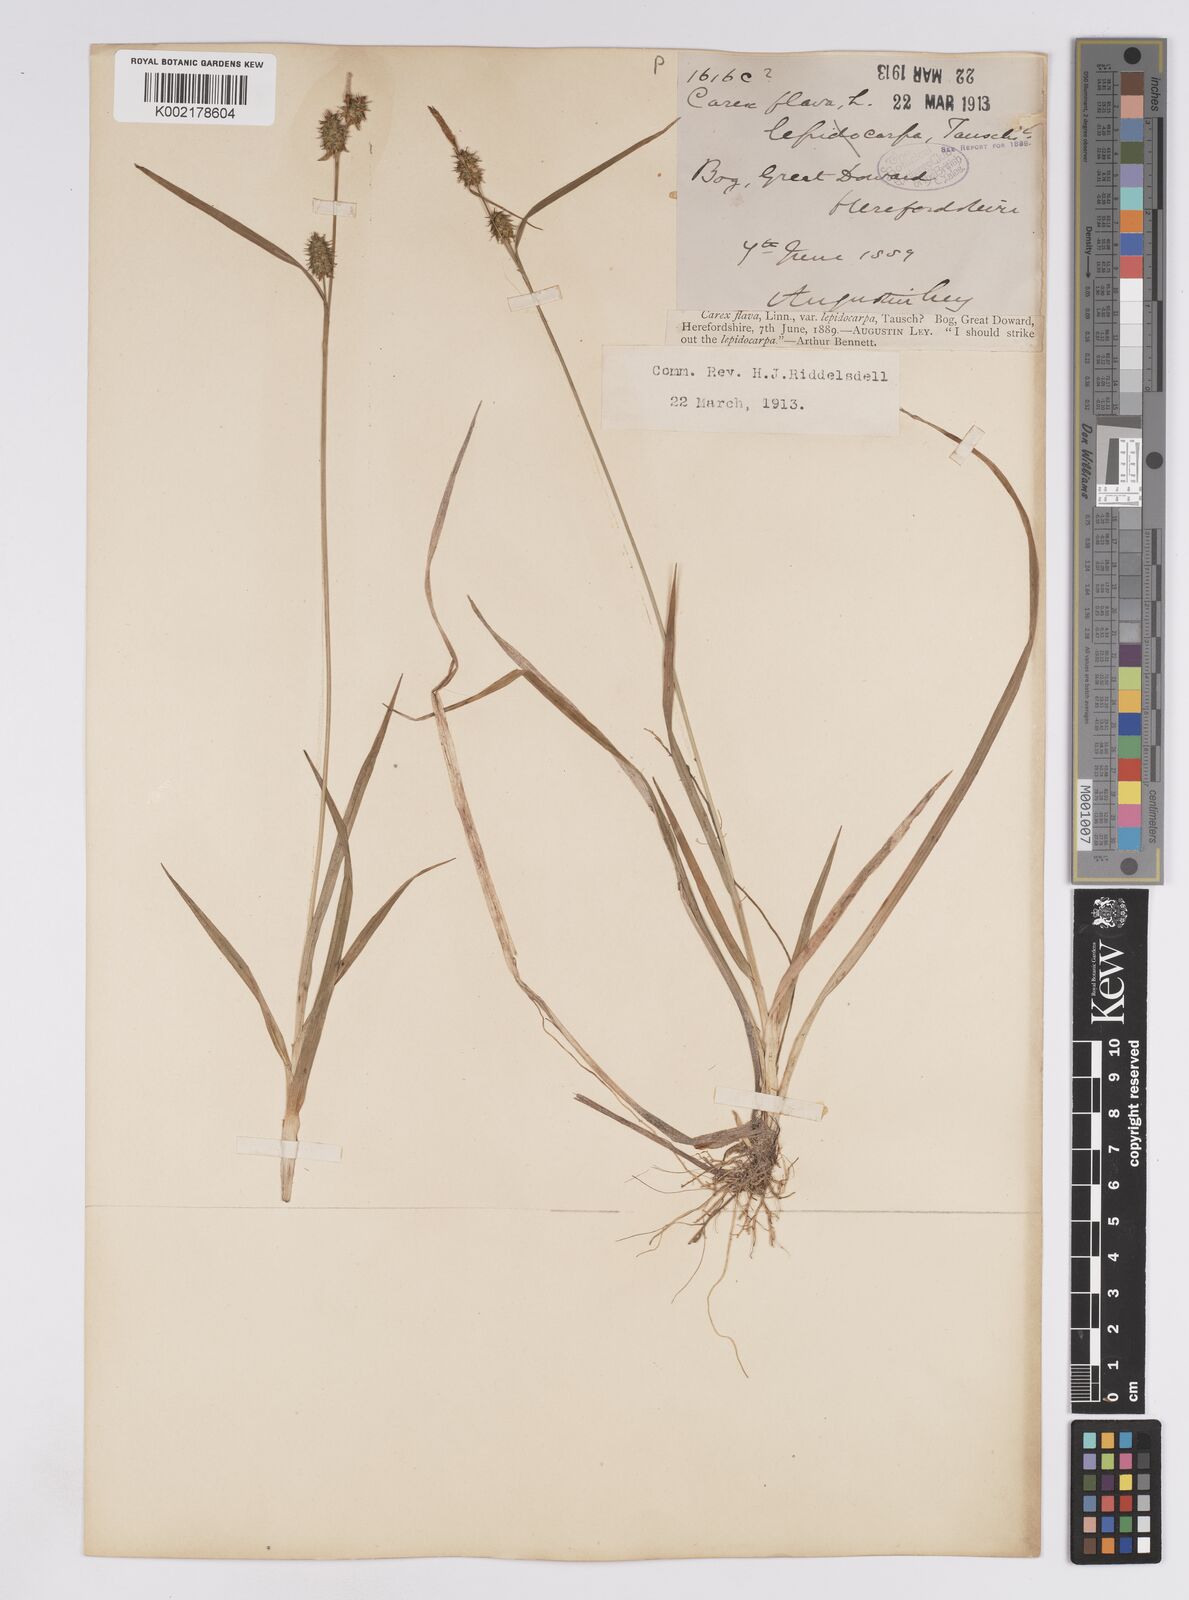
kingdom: Plantae
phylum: Tracheophyta
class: Liliopsida
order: Poales
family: Cyperaceae
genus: Carex
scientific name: Carex lepidocarpa
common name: Long-stalked yellow-sedge
